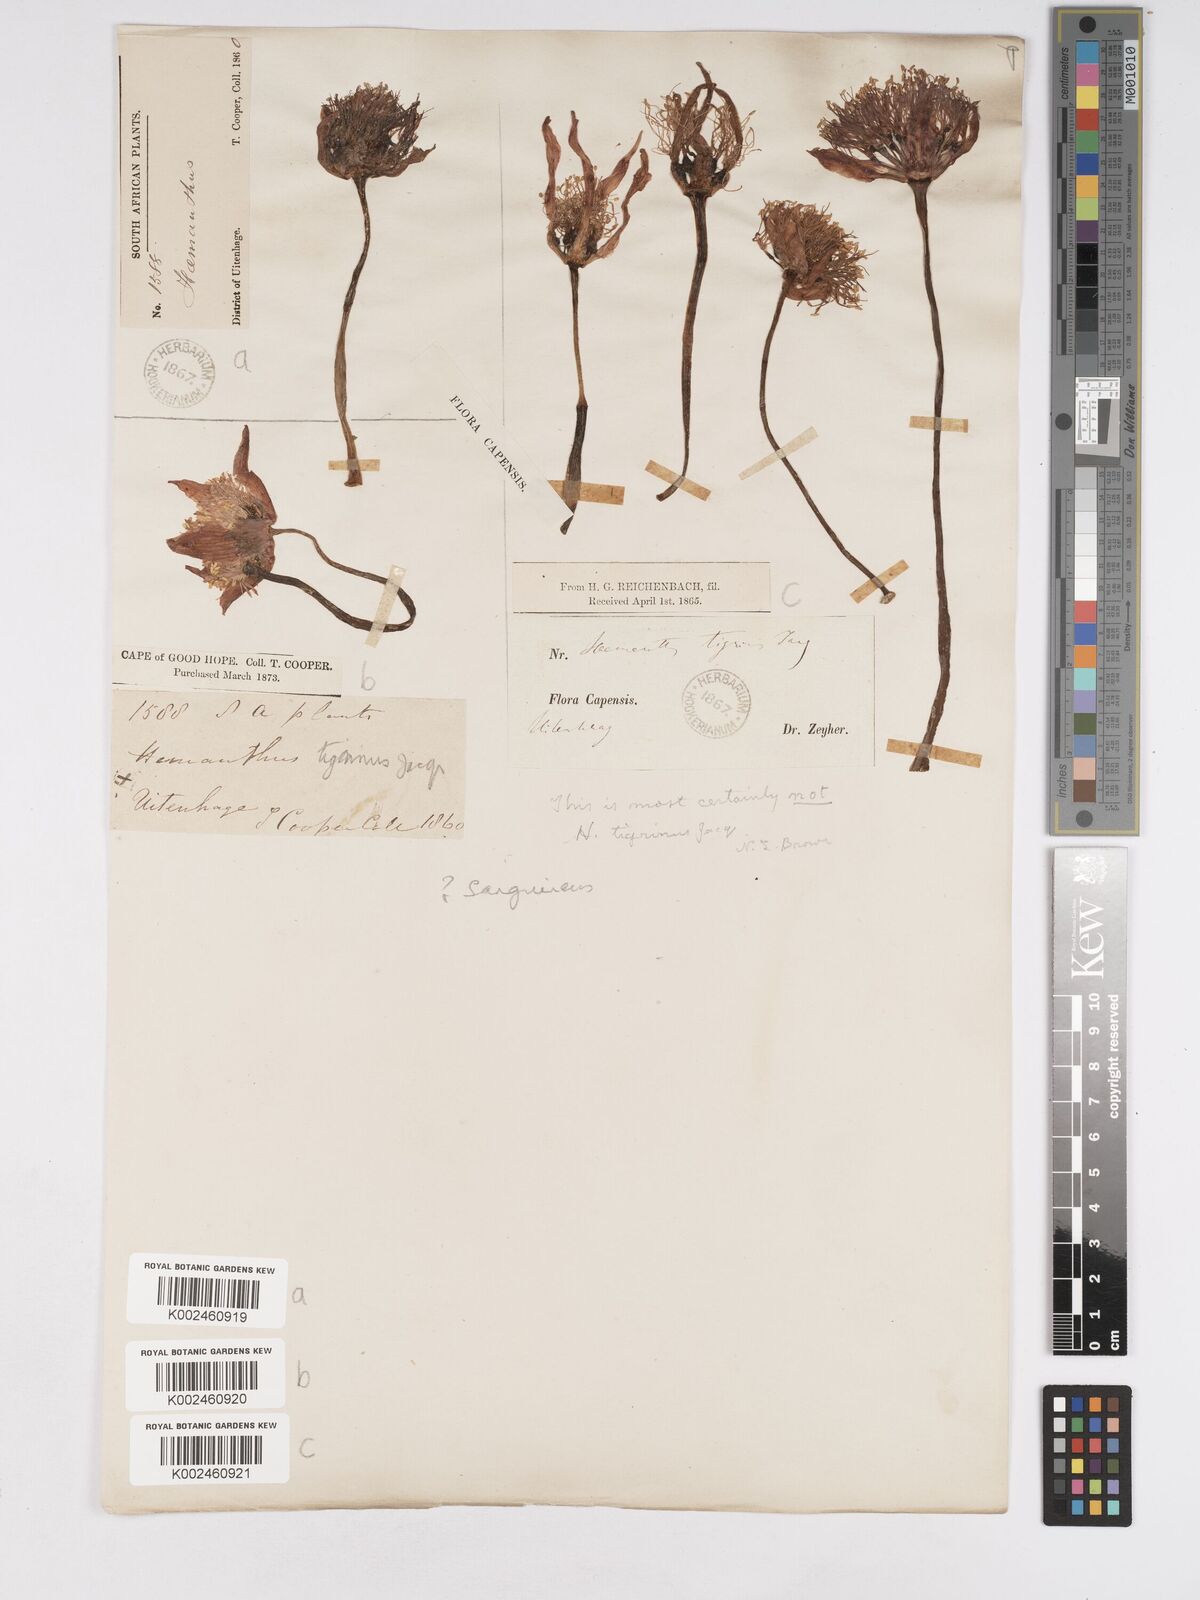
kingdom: Plantae
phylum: Tracheophyta
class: Liliopsida
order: Asparagales
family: Amaryllidaceae
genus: Haemanthus
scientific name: Haemanthus sanguineus
